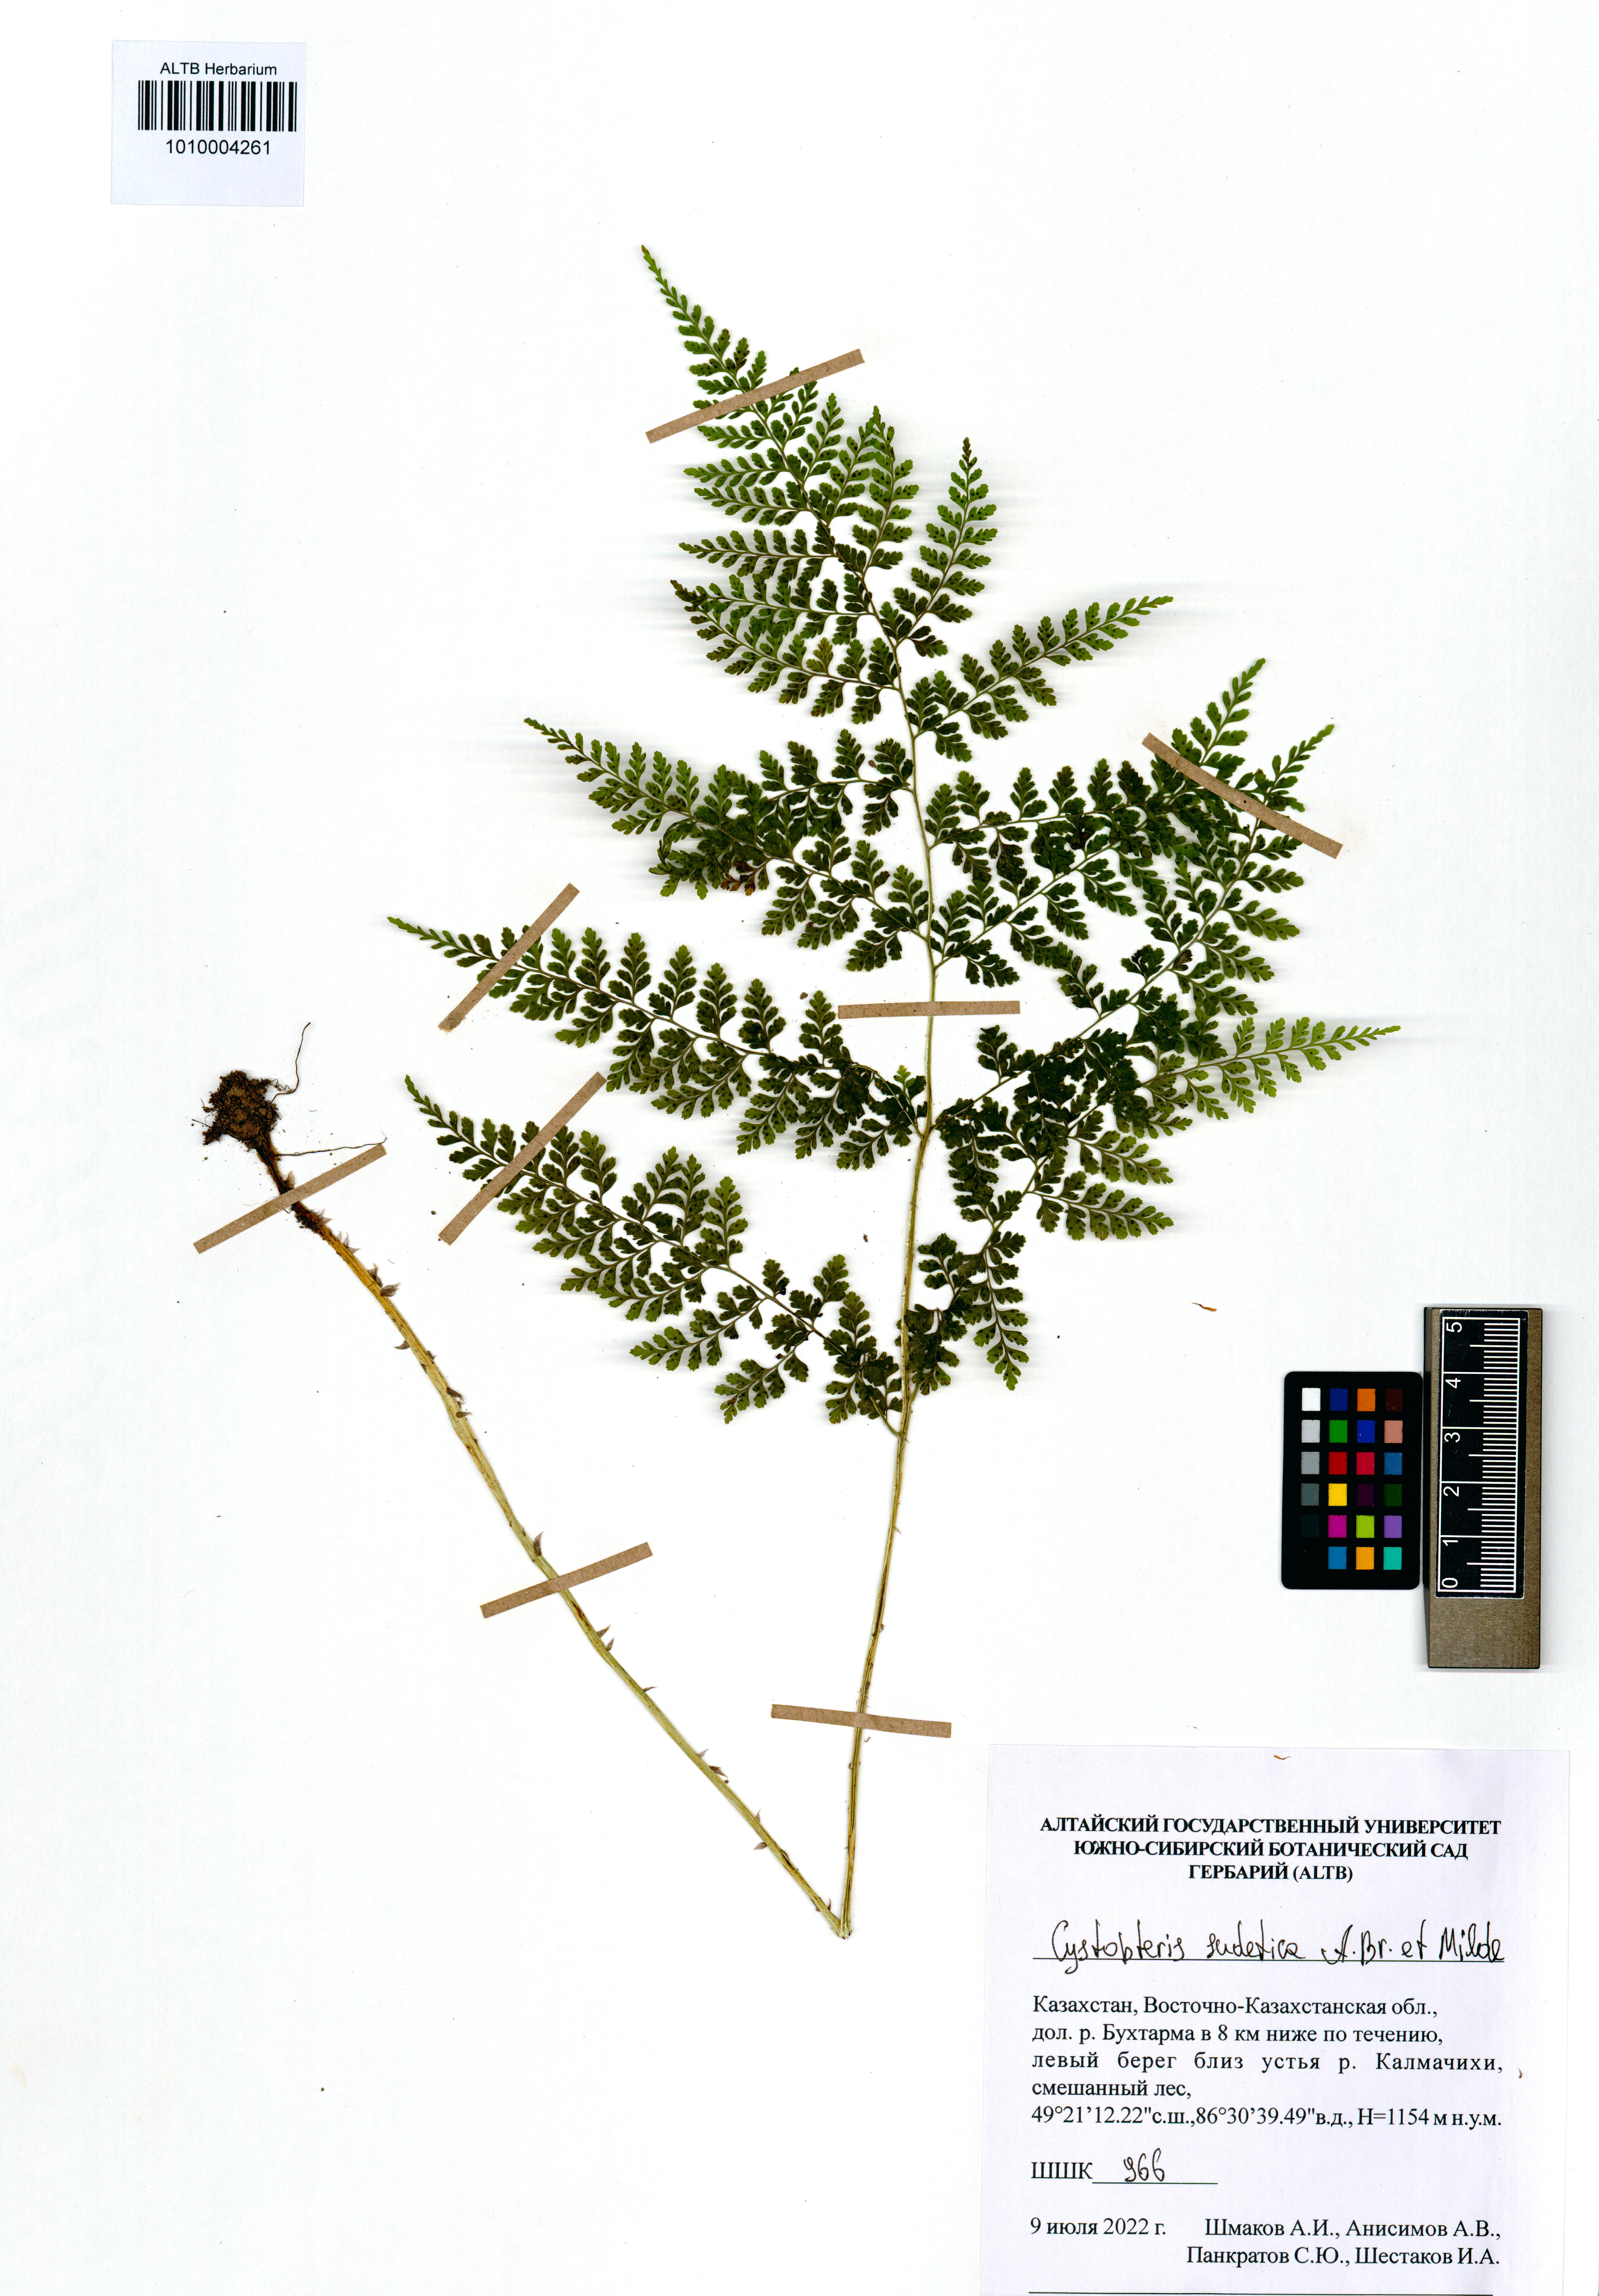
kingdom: Plantae
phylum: Tracheophyta
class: Polypodiopsida
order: Polypodiales
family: Cystopteridaceae
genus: Cystopteris
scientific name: Cystopteris sudetica
